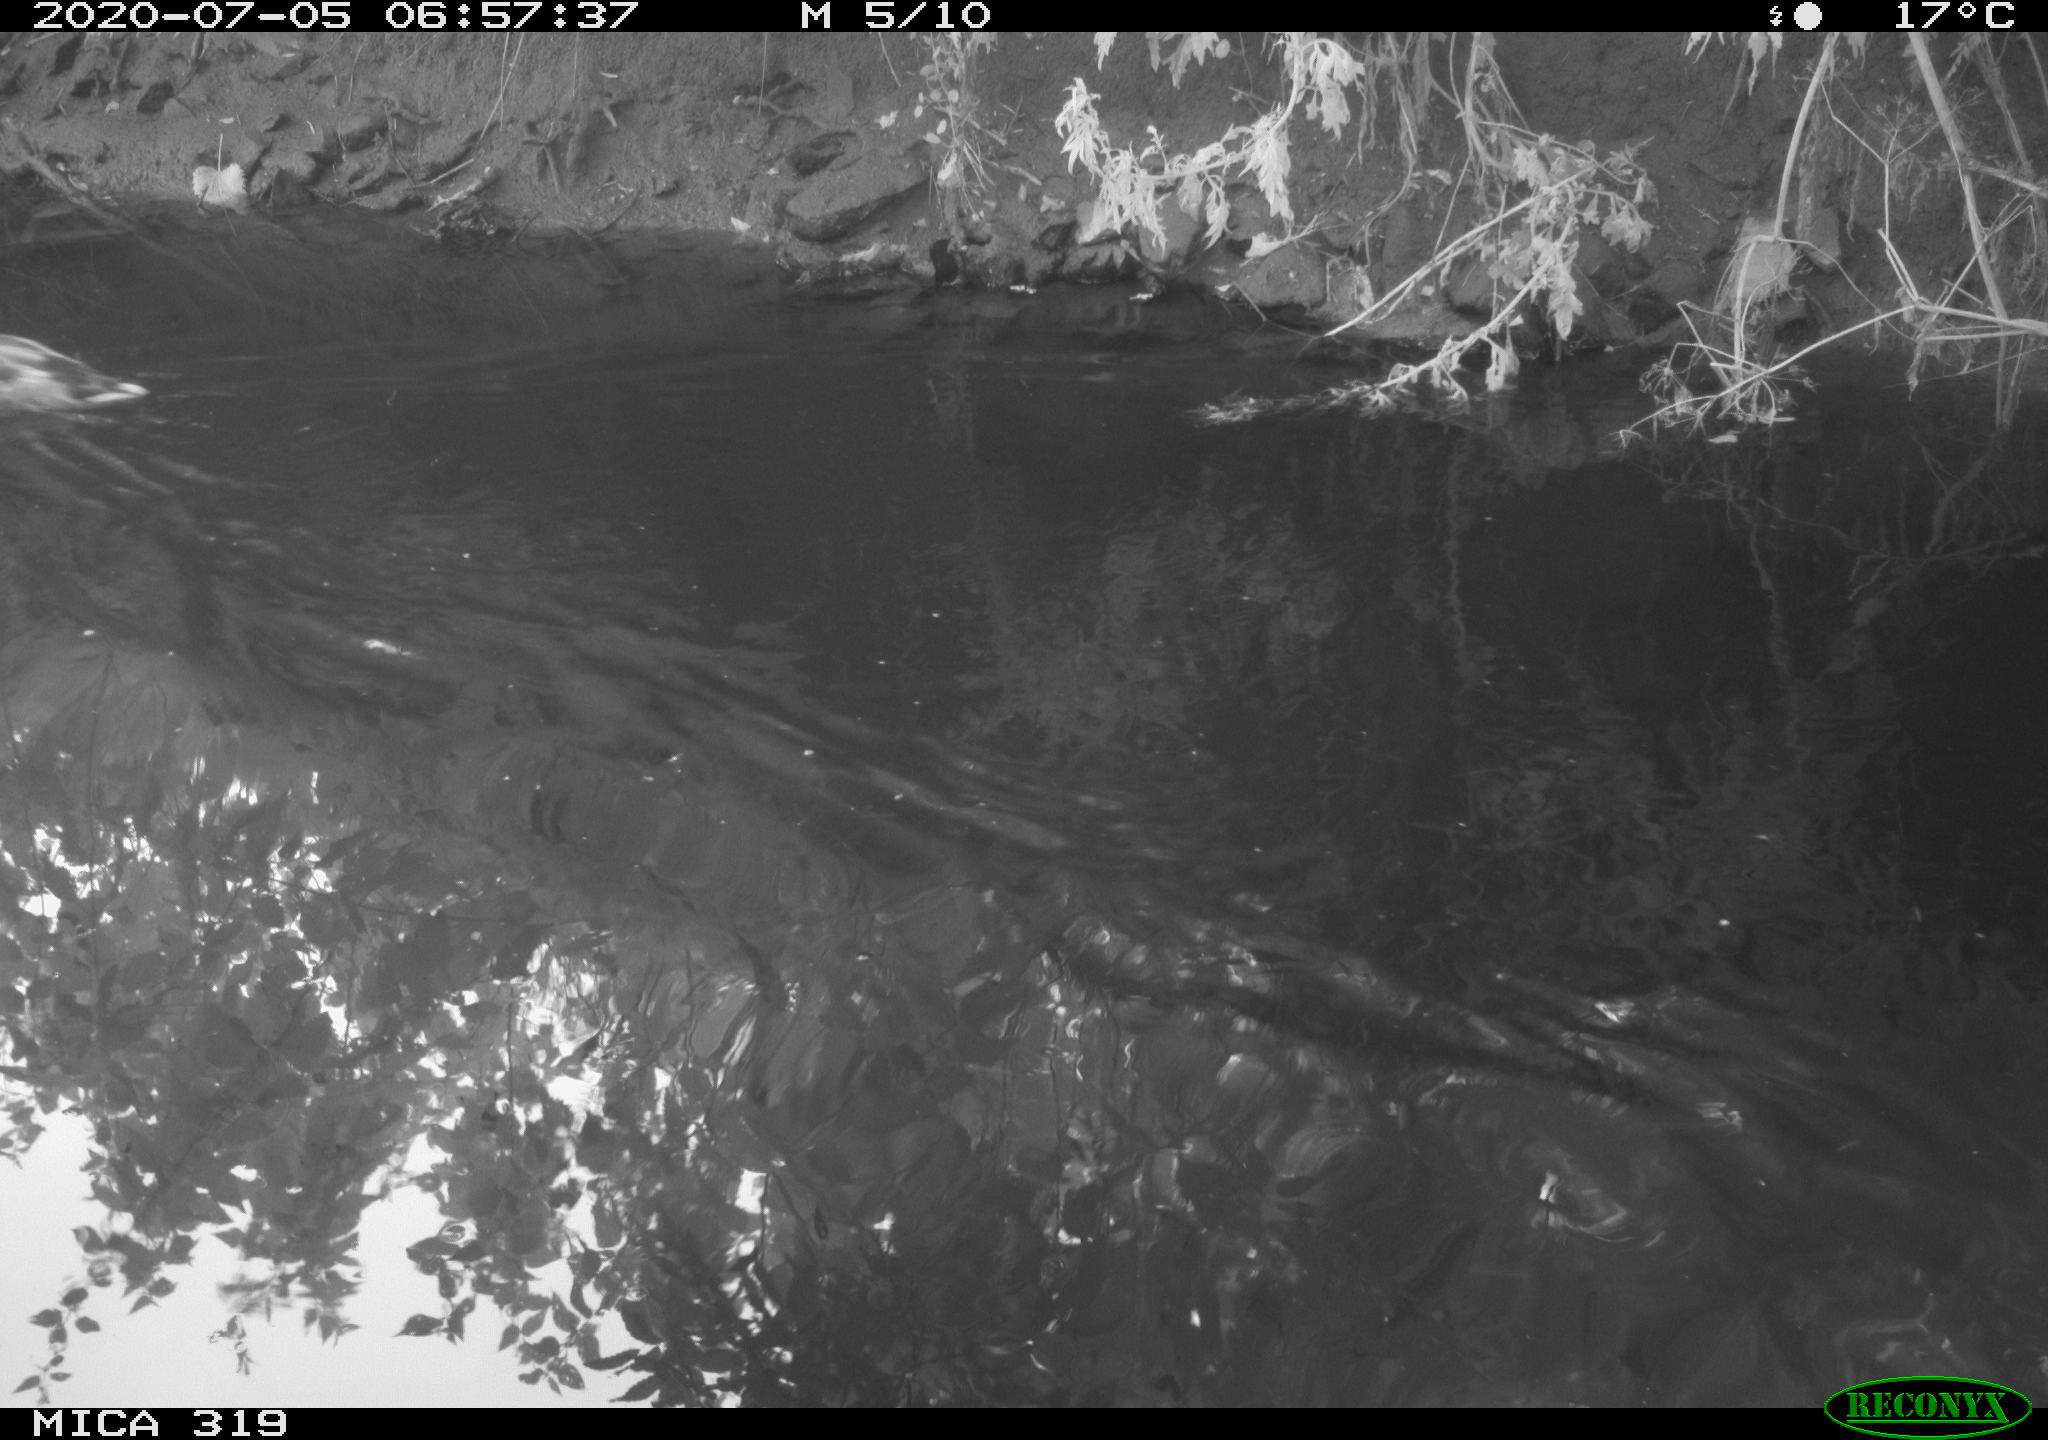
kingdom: Animalia
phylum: Chordata
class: Aves
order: Anseriformes
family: Anatidae
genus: Anas
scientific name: Anas platyrhynchos
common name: Mallard
